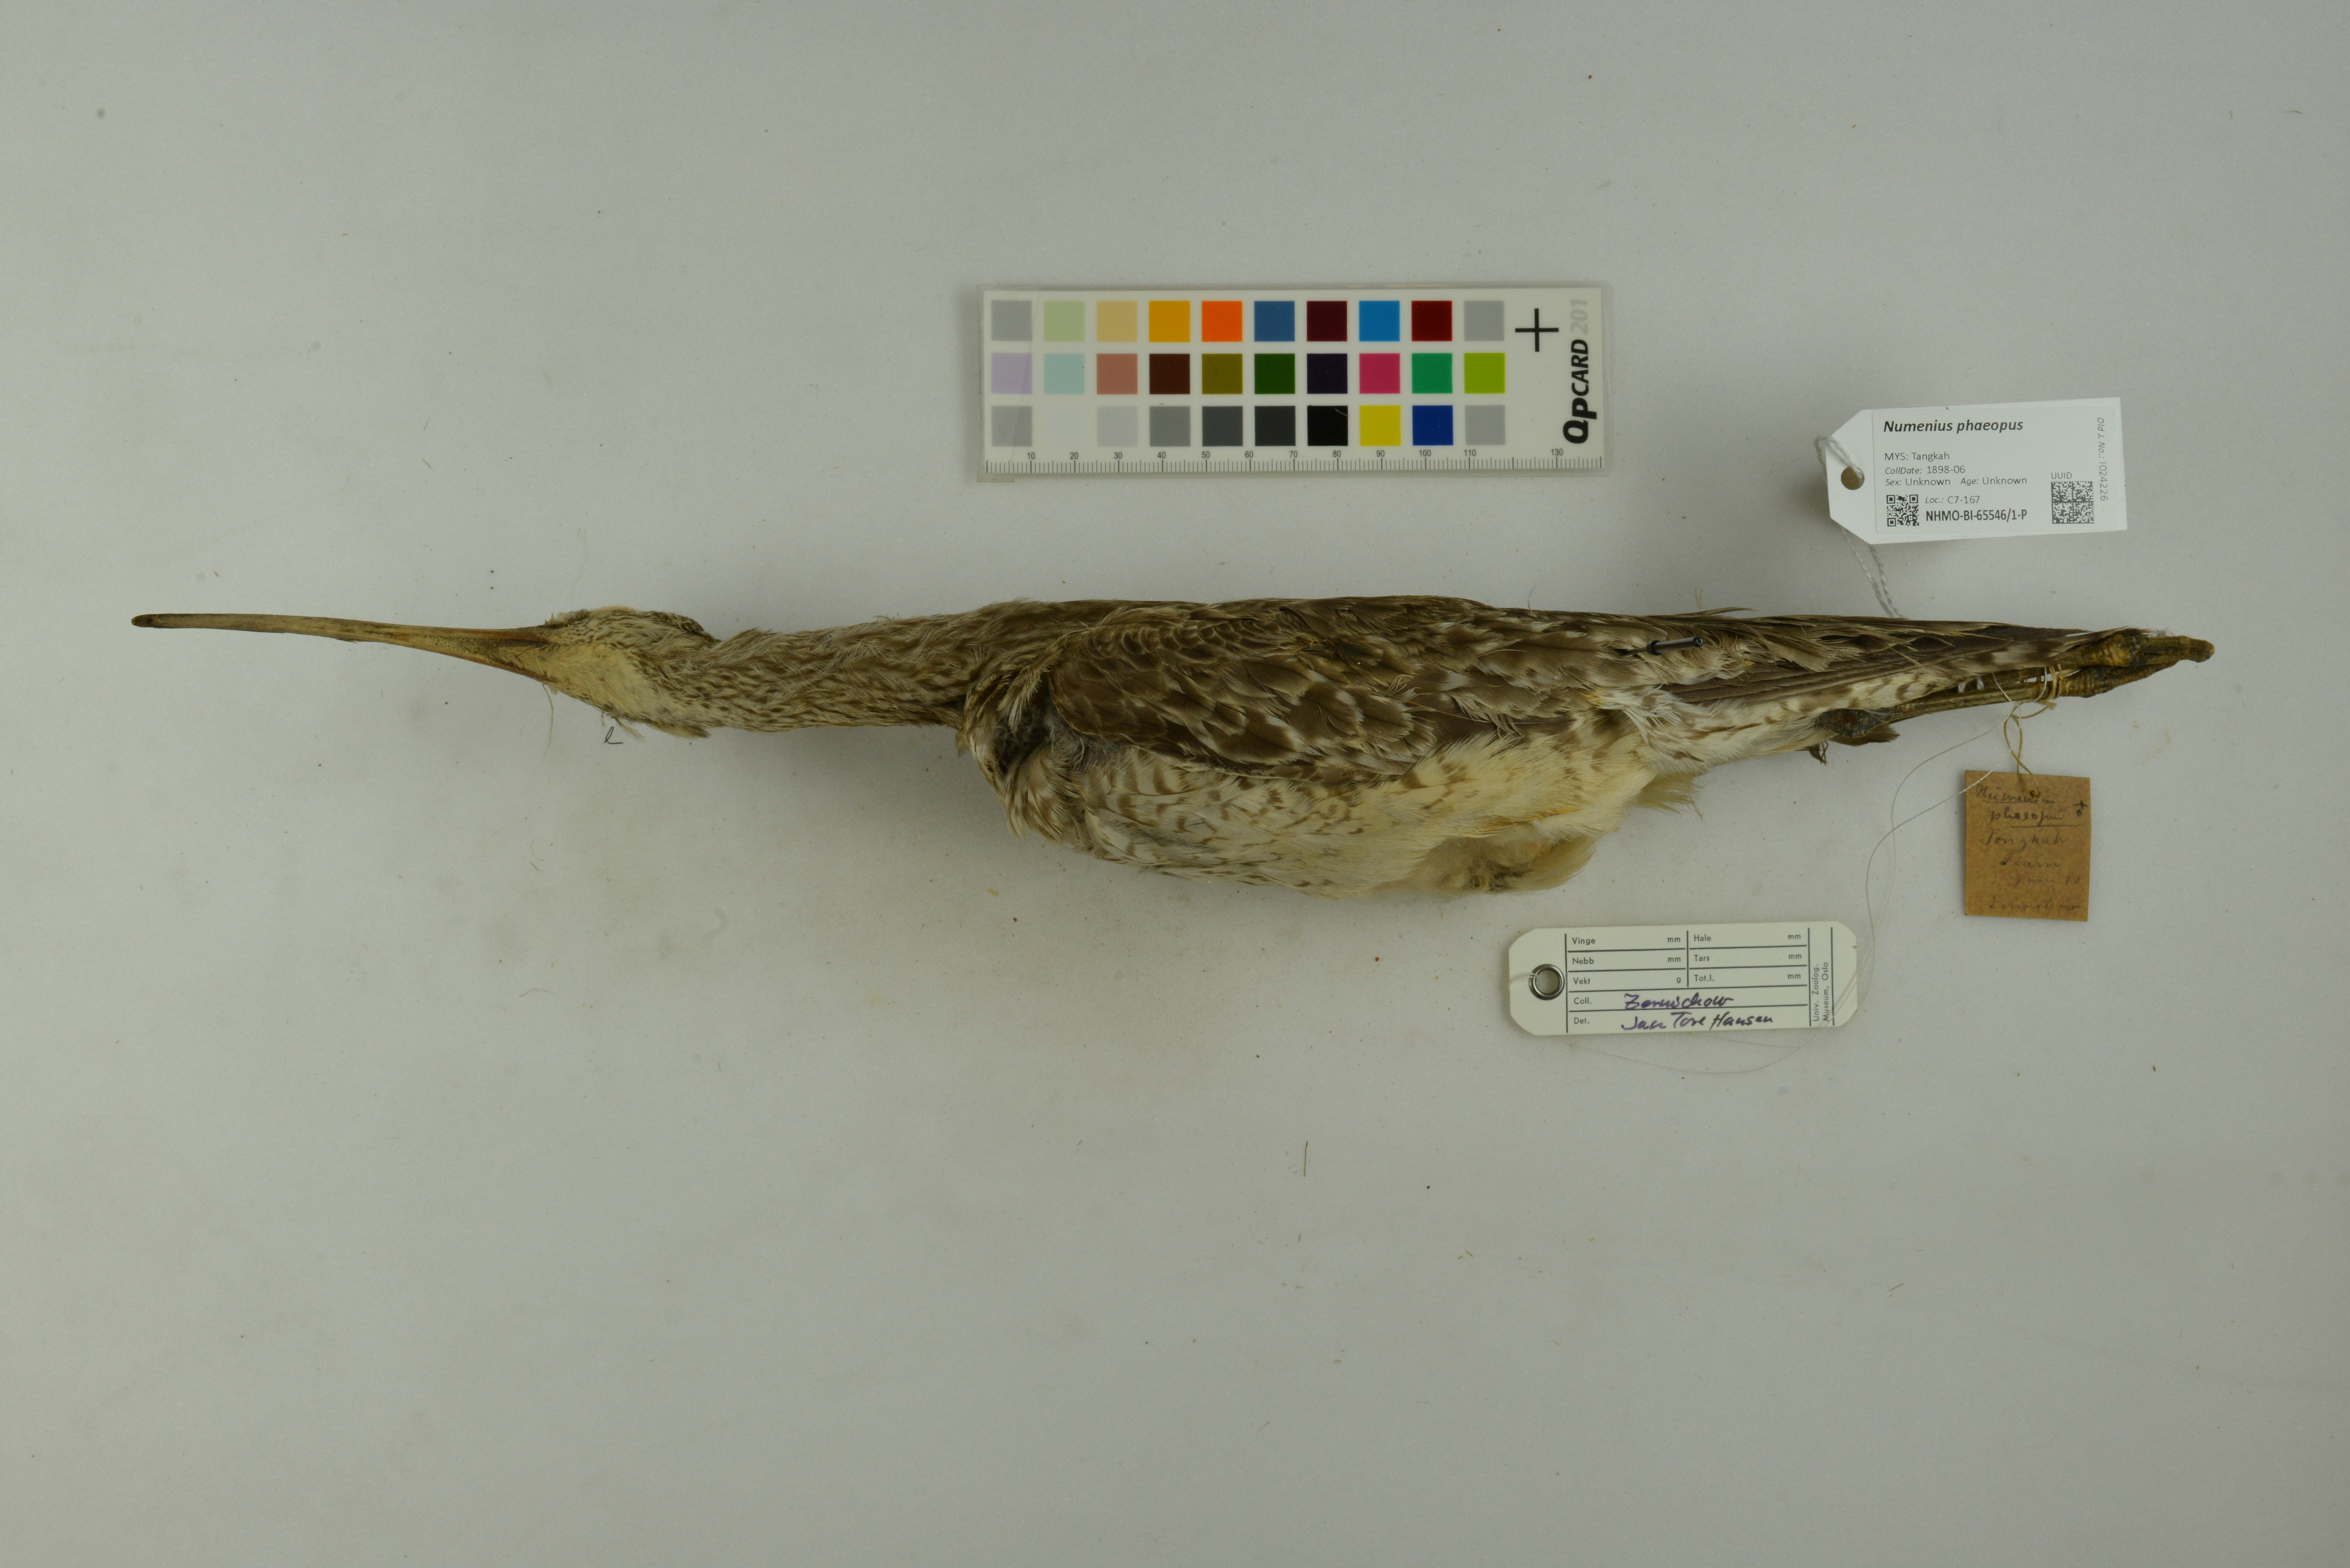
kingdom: Animalia
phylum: Chordata
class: Aves
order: Charadriiformes
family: Scolopacidae
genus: Numenius
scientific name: Numenius phaeopus
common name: Whimbrel
